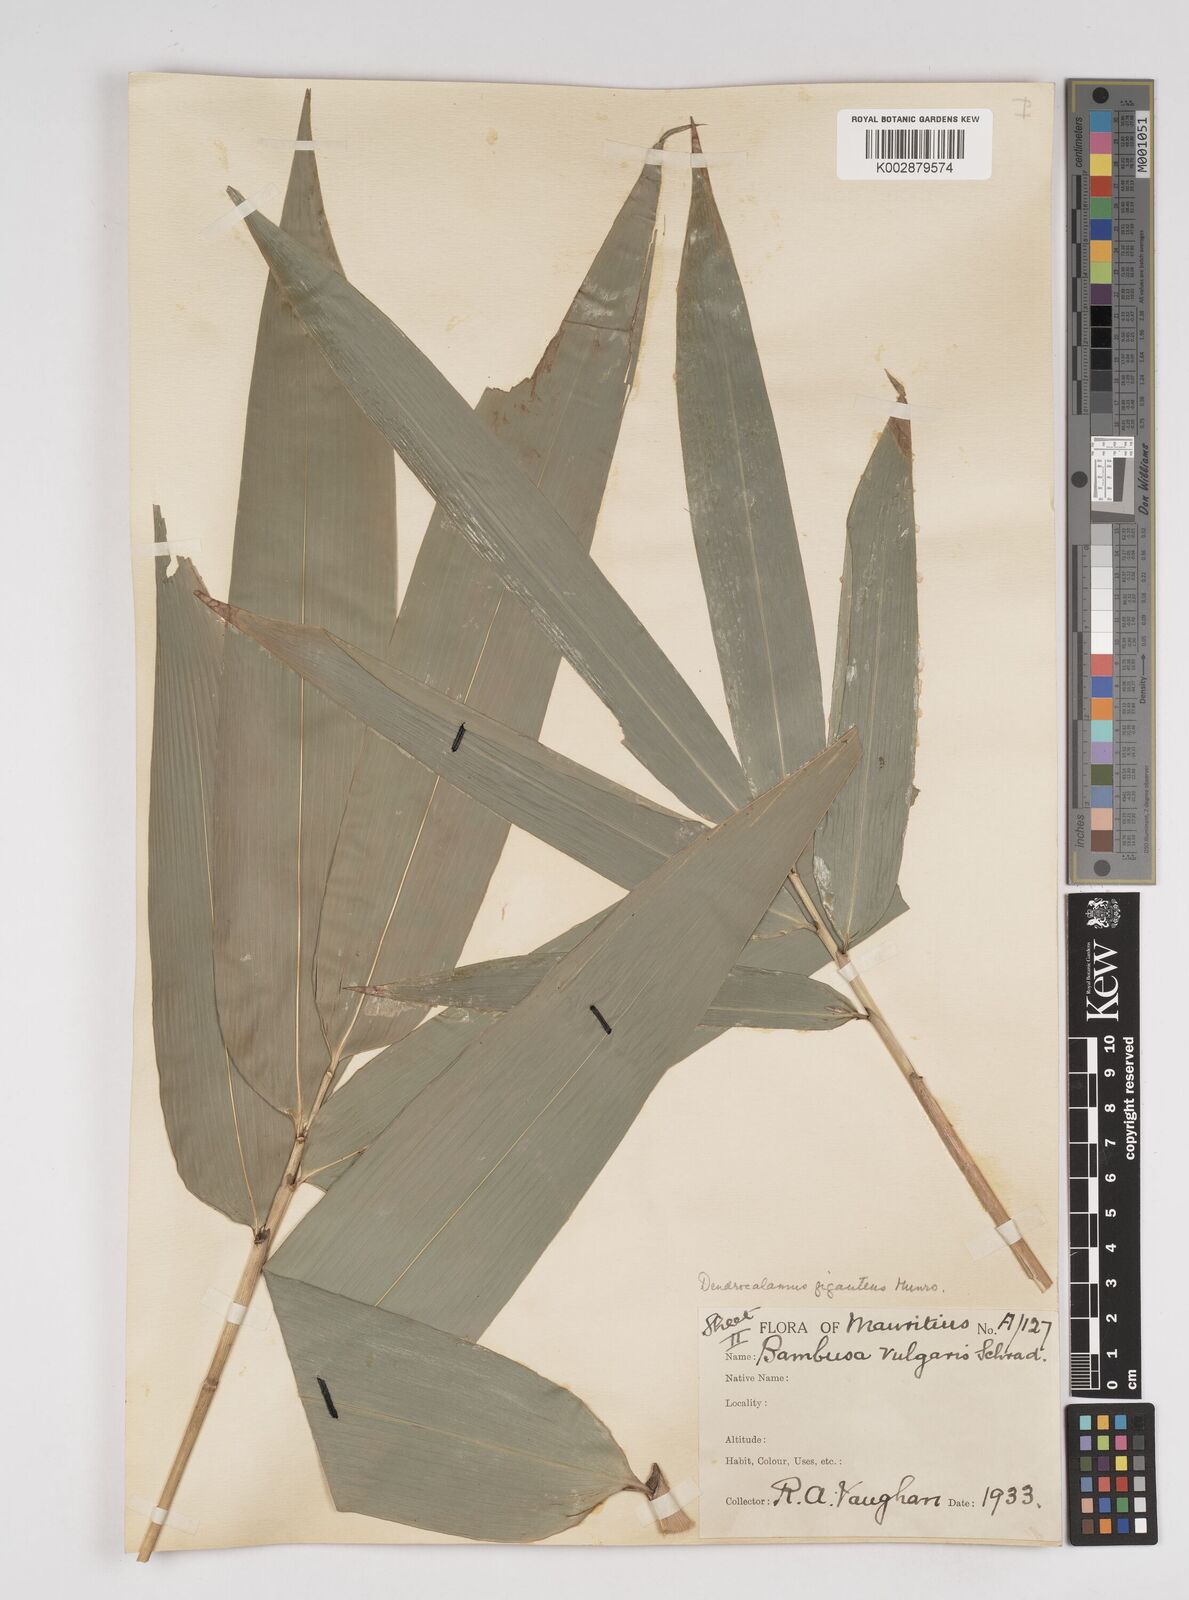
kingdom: Plantae
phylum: Tracheophyta
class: Liliopsida
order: Poales
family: Poaceae
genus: Dendrocalamus
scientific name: Dendrocalamus giganteus
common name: Giant bamboo
